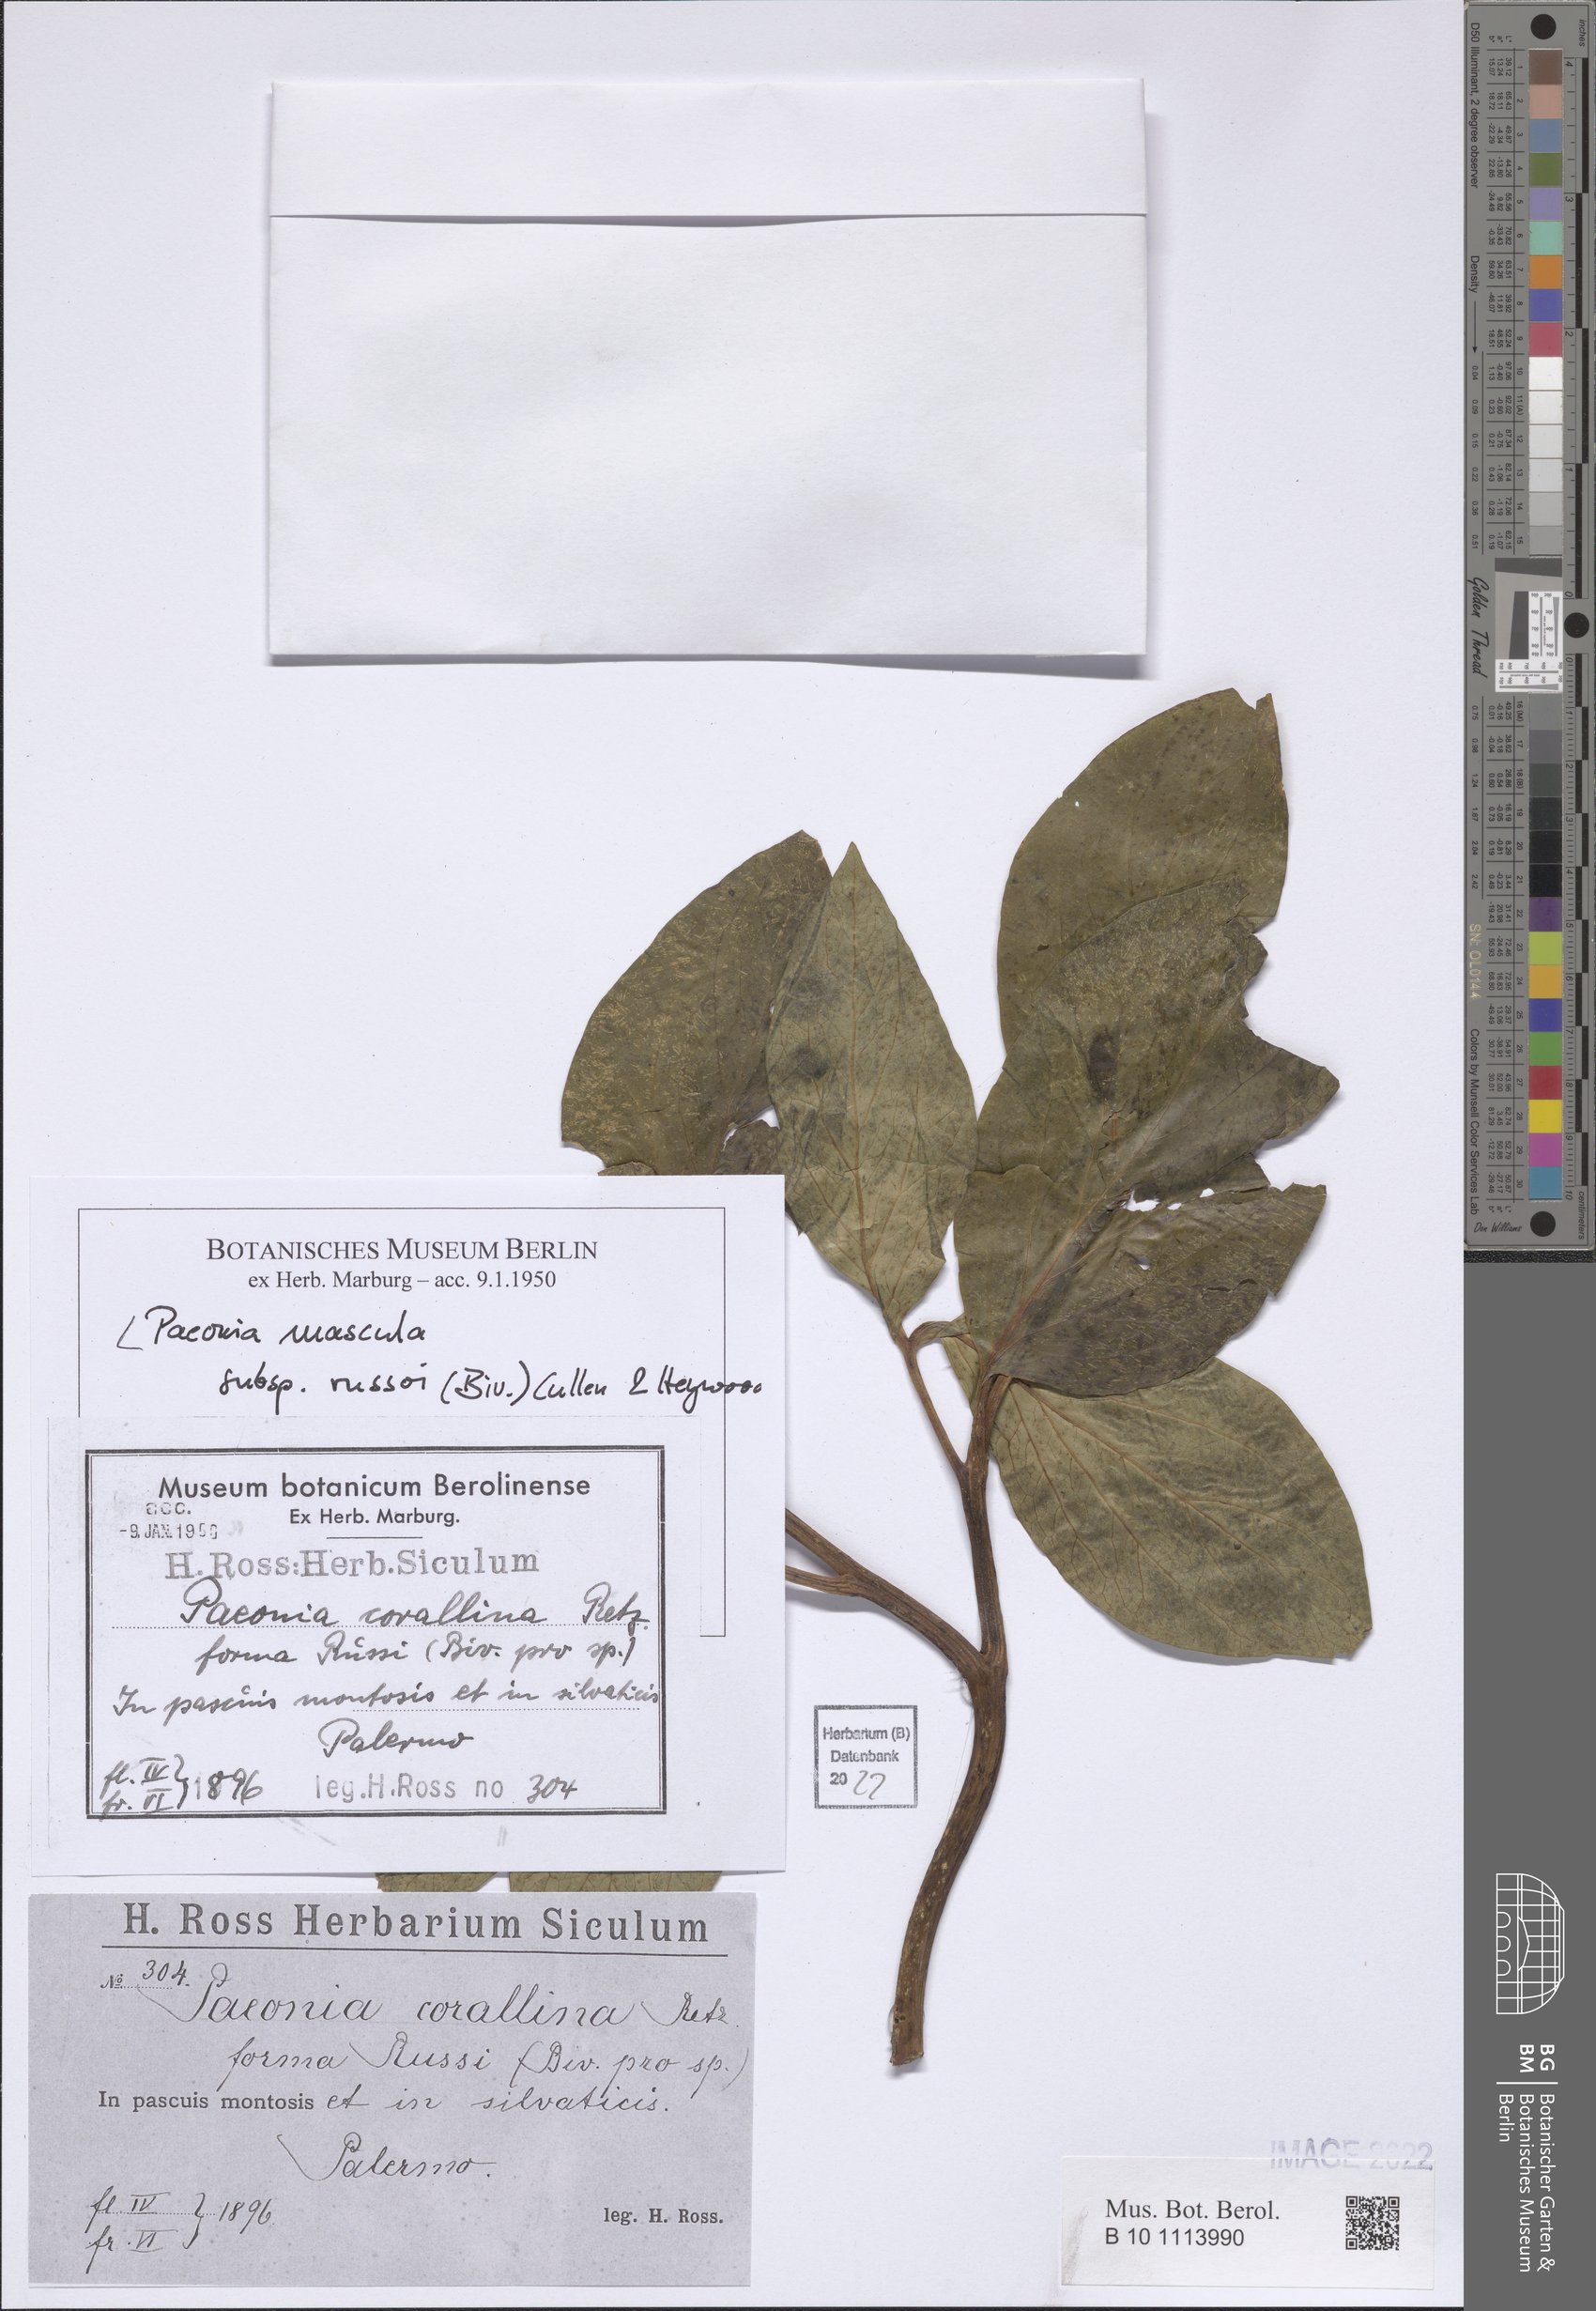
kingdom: Plantae
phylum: Tracheophyta
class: Magnoliopsida
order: Saxifragales
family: Paeoniaceae
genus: Paeonia
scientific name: Paeonia mascula
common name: Peony
